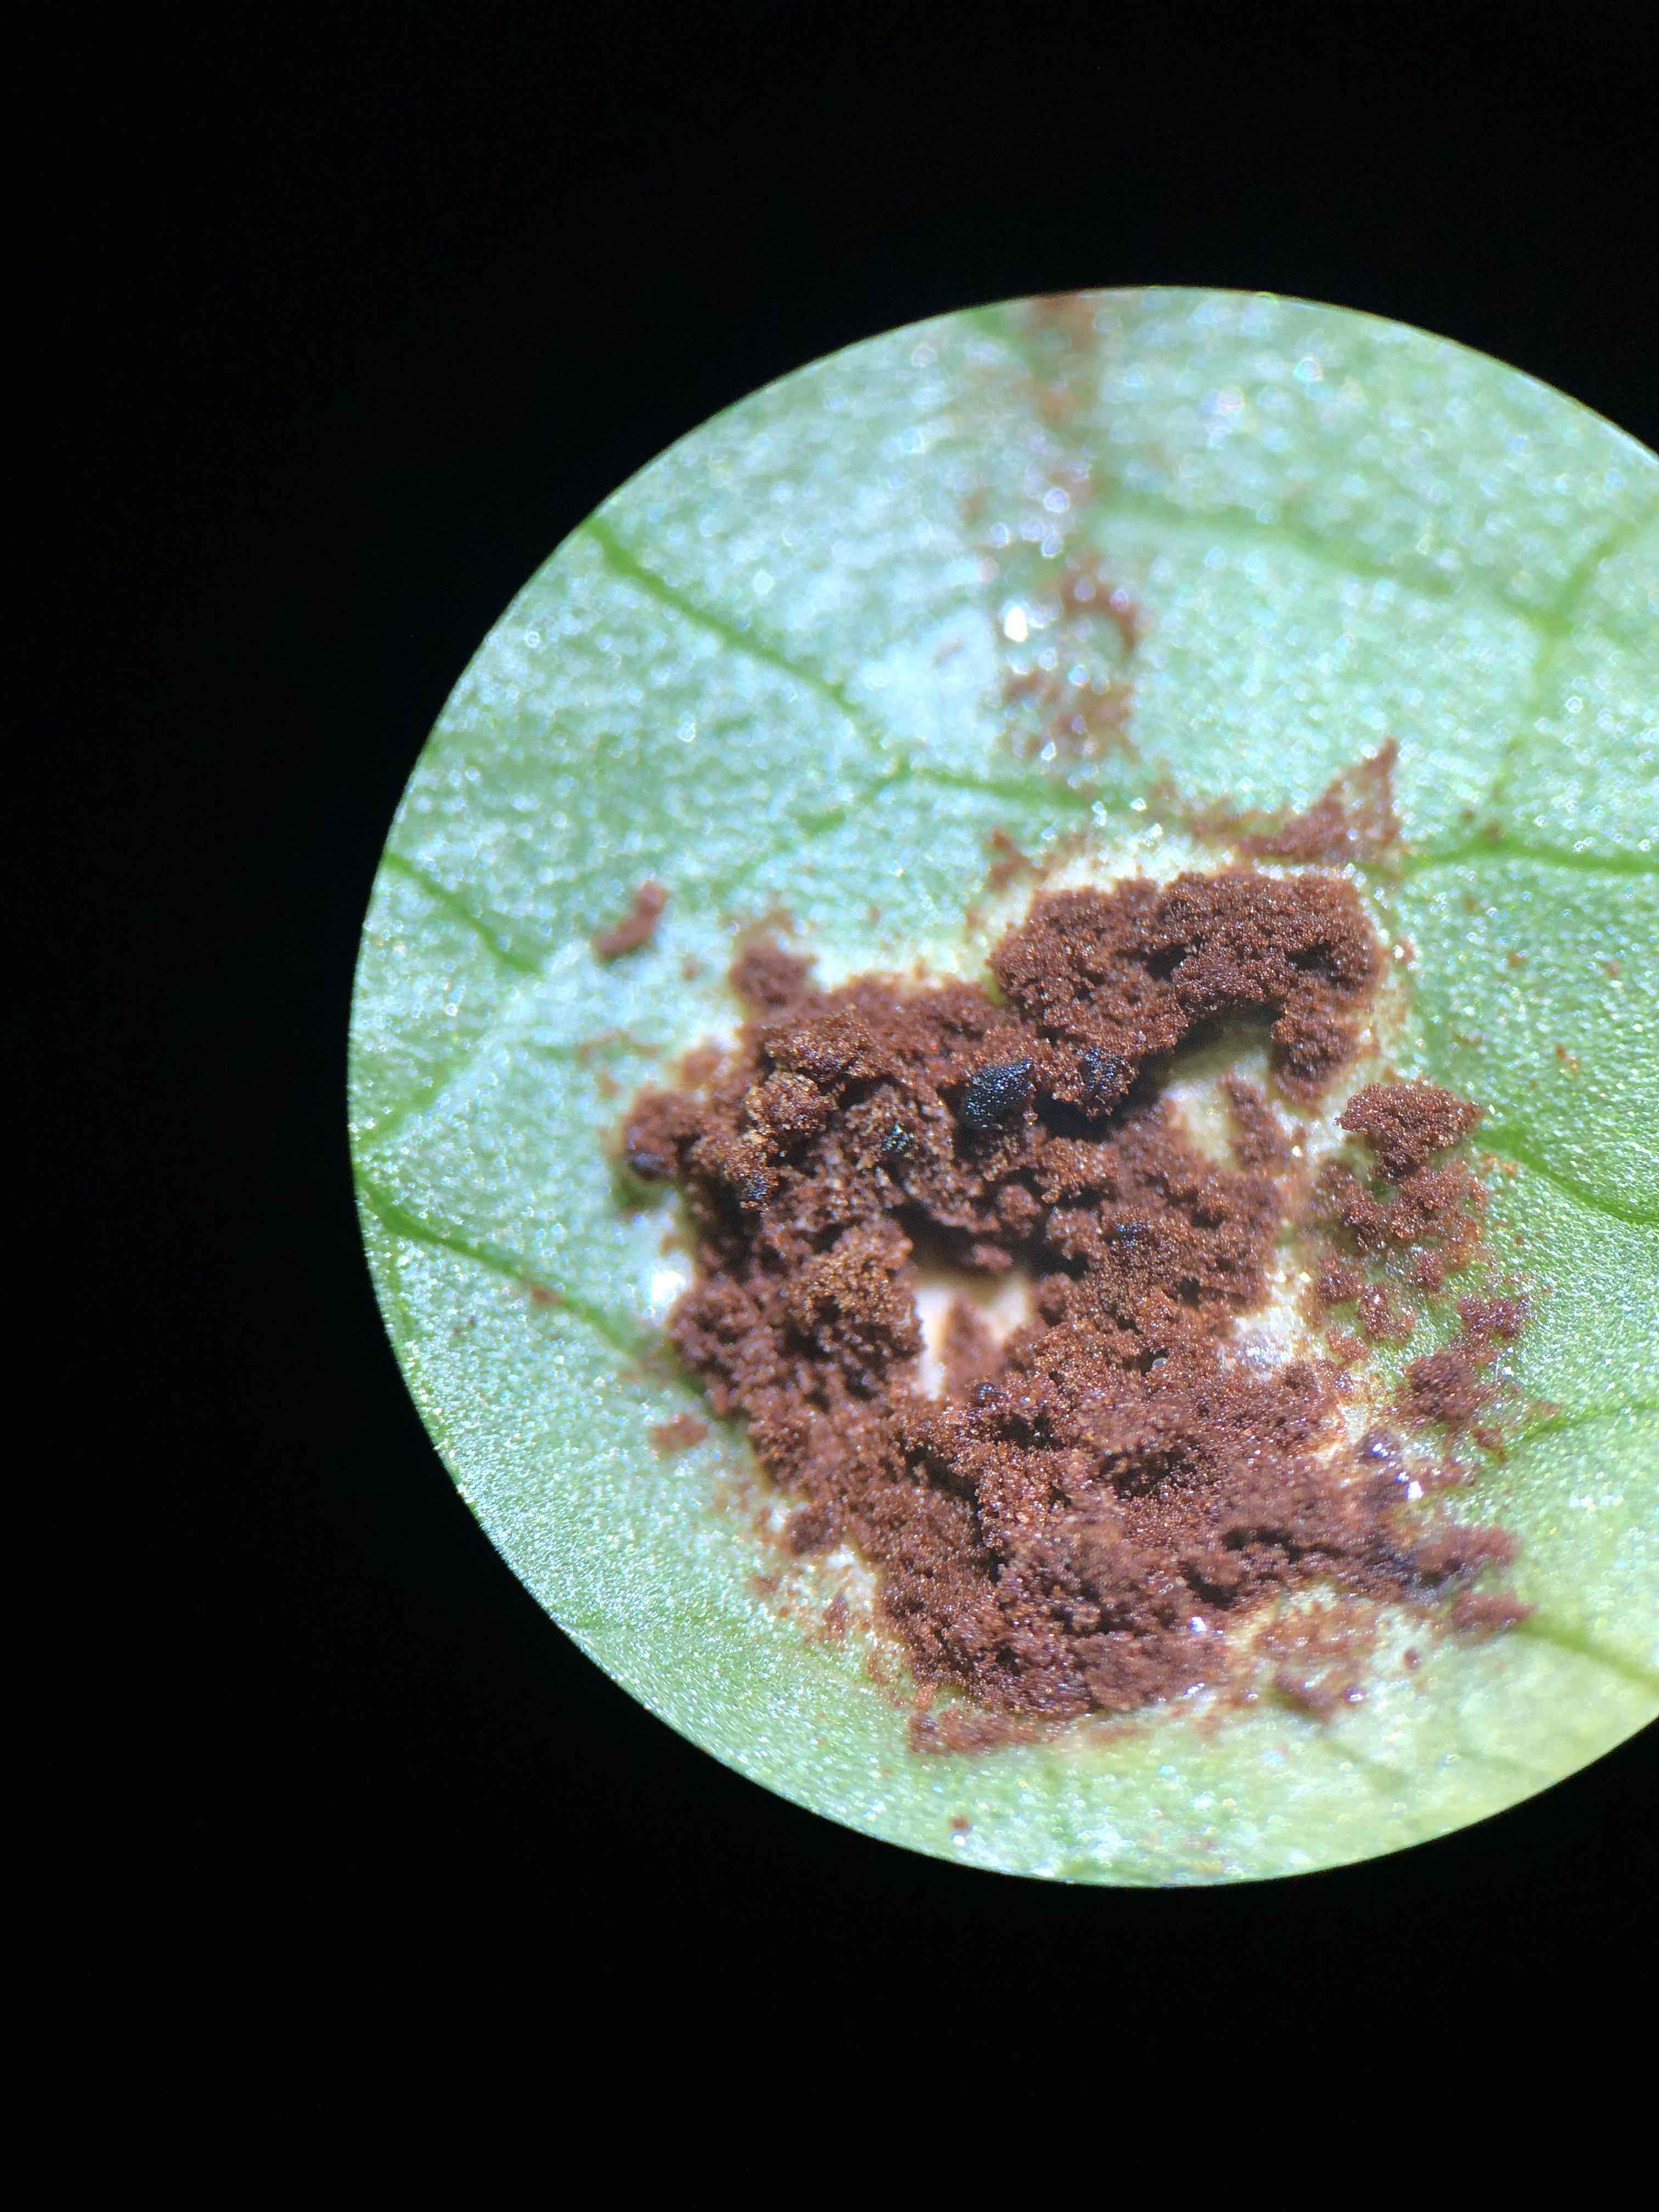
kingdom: Fungi
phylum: Basidiomycota
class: Pucciniomycetes
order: Pucciniales
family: Pucciniaceae
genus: Uromyces
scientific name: Uromyces ficariae
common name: vorterod-encellerust
